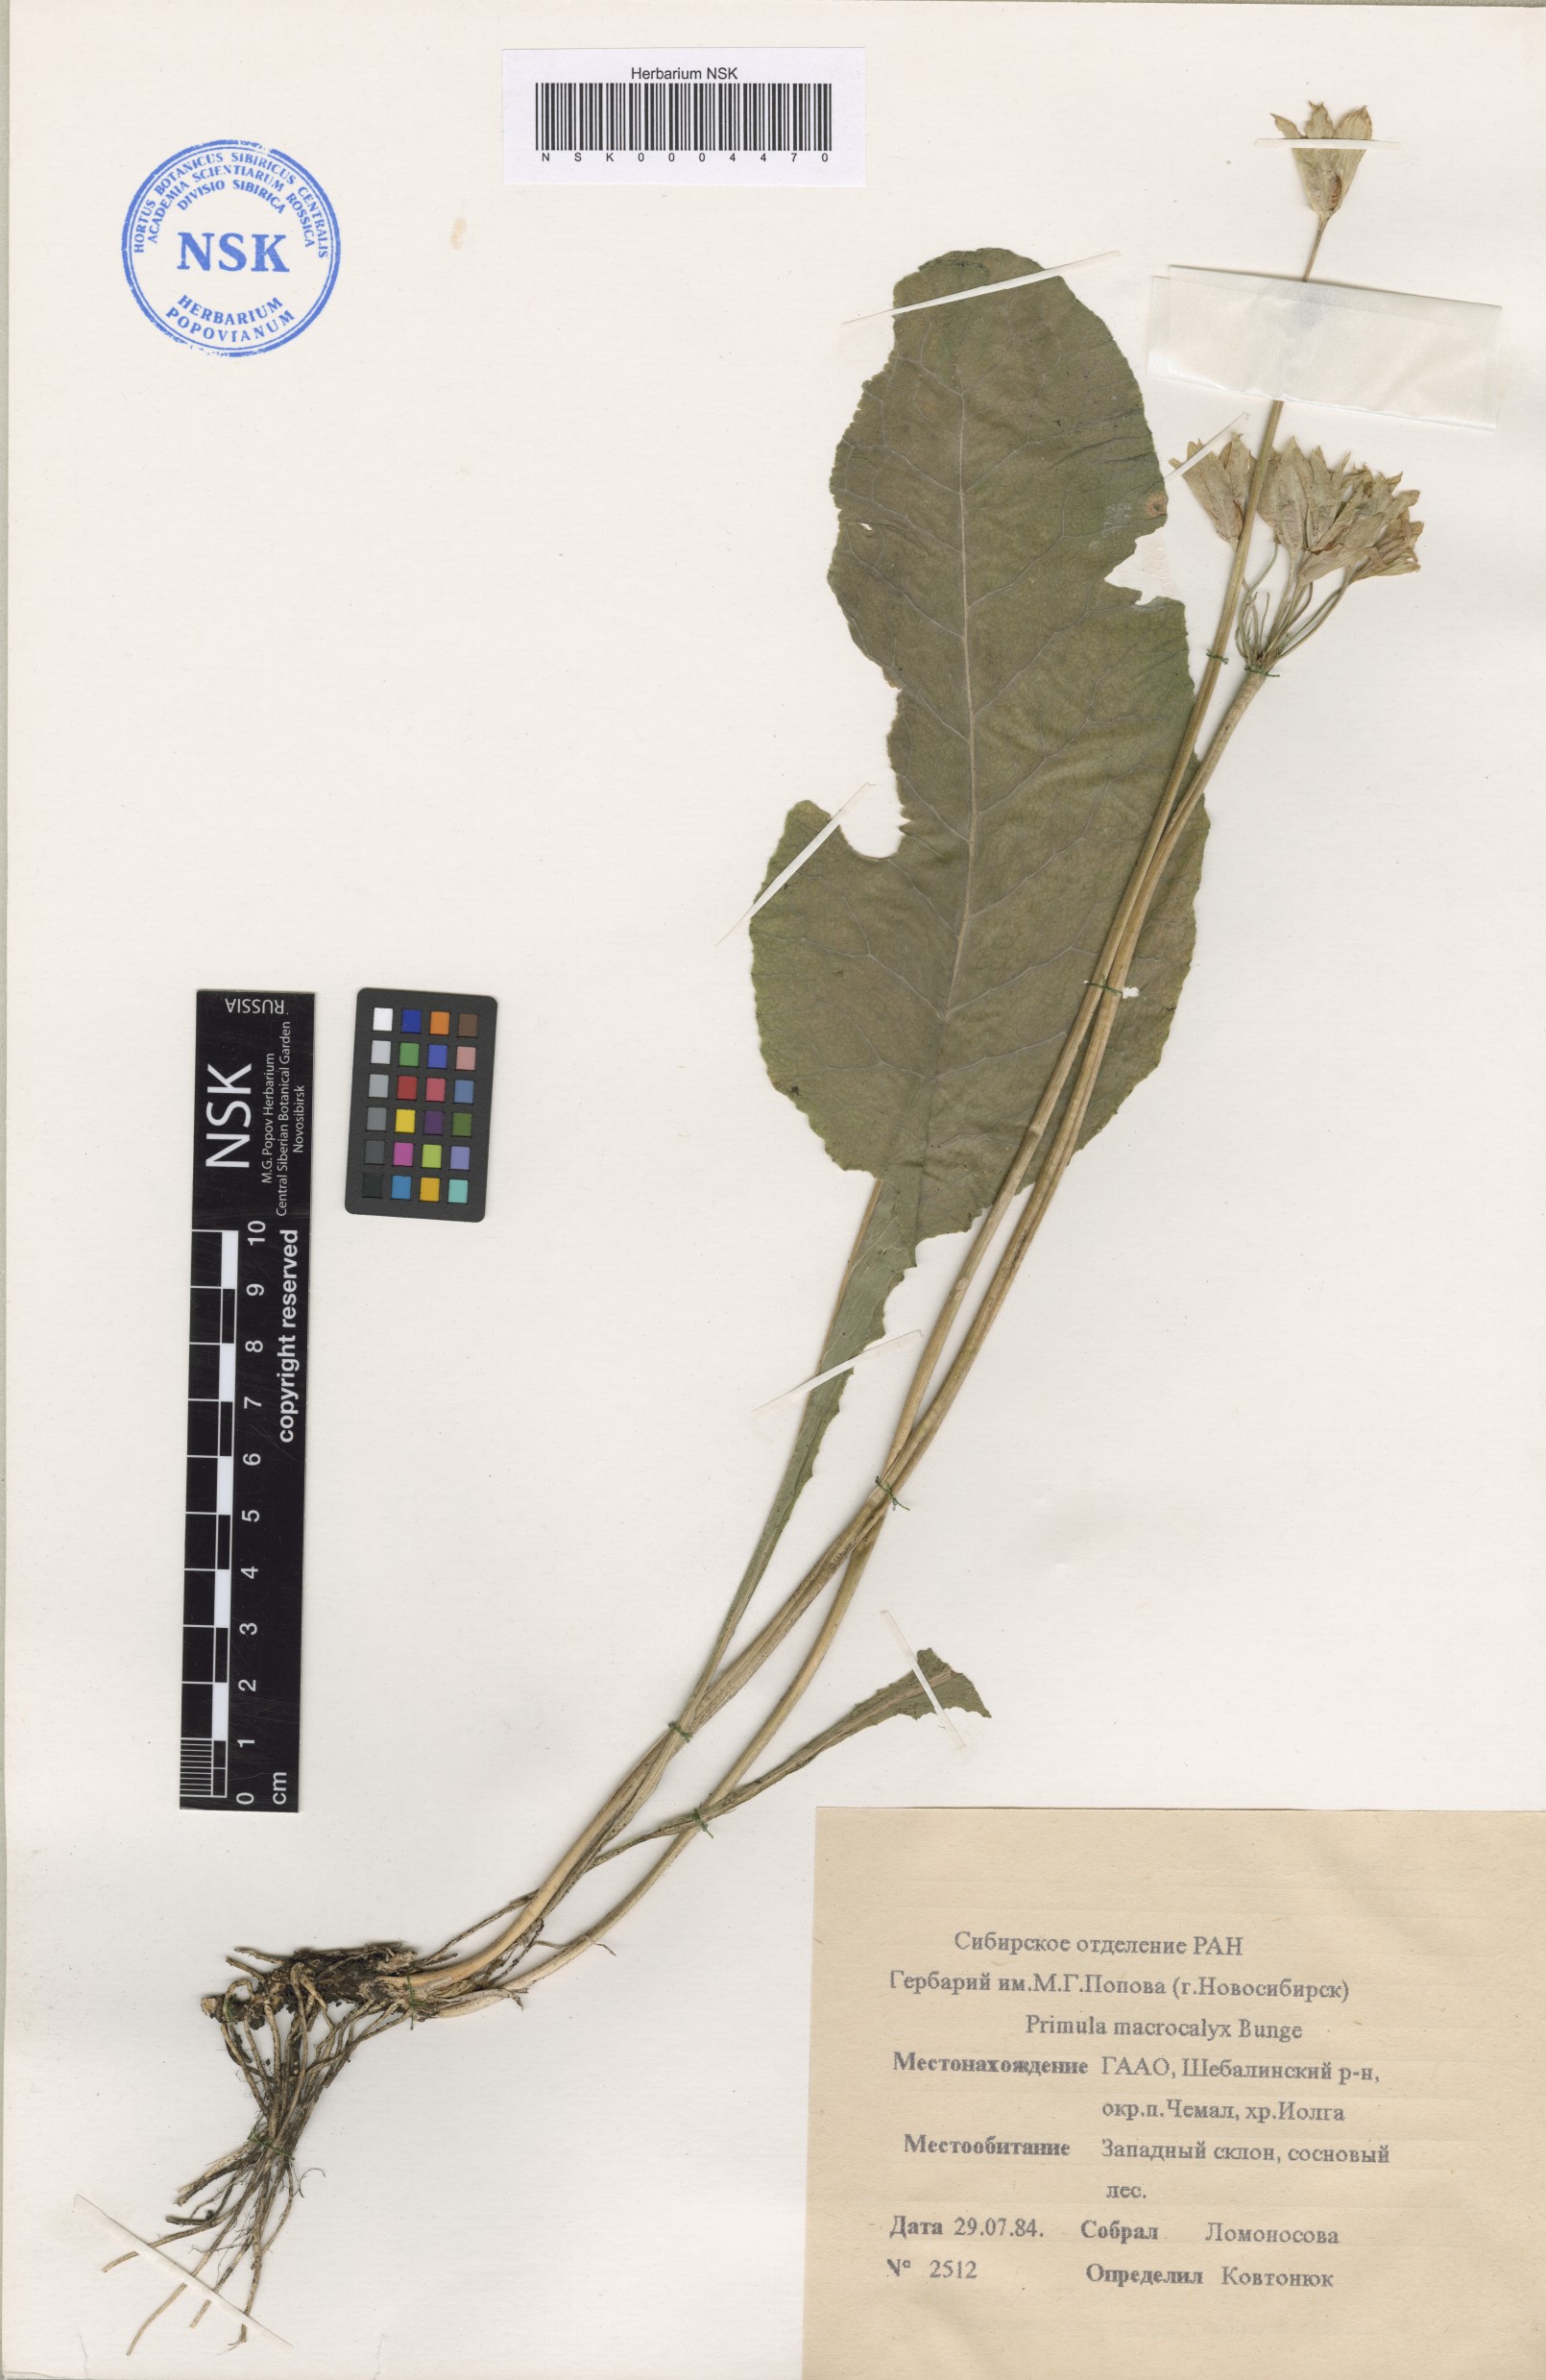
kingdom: Plantae
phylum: Tracheophyta
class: Magnoliopsida
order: Ericales
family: Primulaceae
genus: Primula
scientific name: Primula veris
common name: Cowslip
